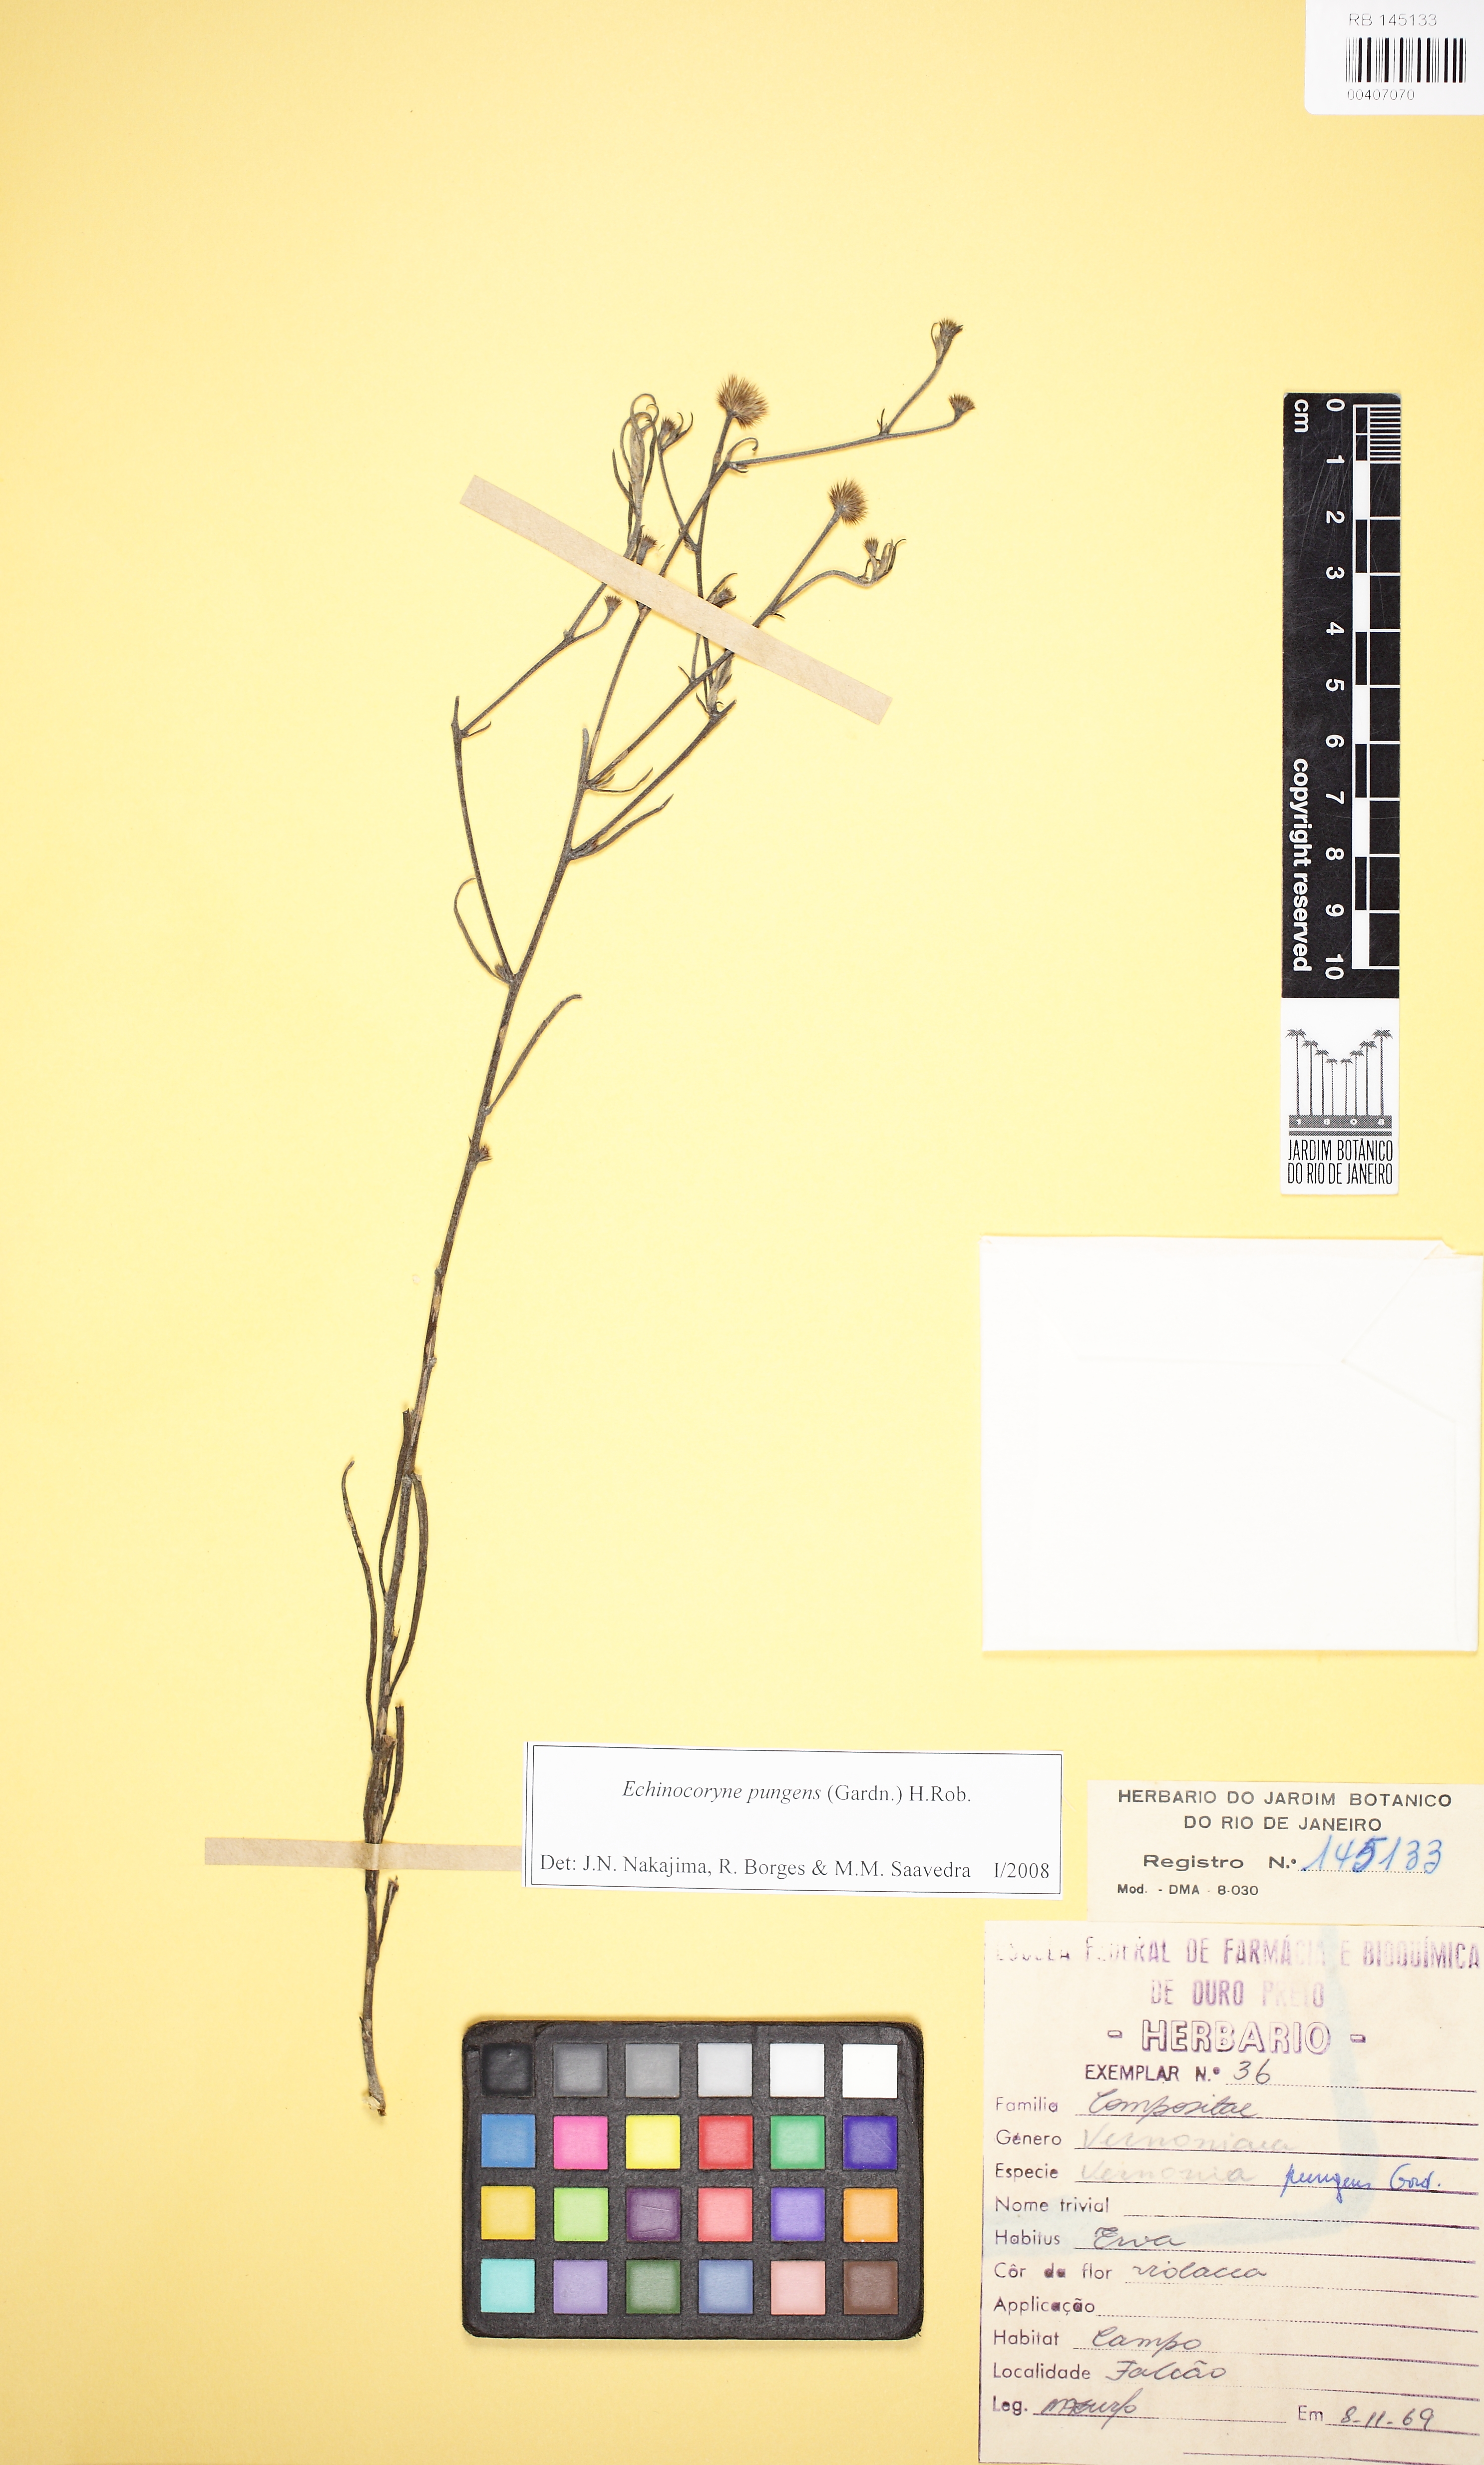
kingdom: Plantae
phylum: Tracheophyta
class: Magnoliopsida
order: Asterales
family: Asteraceae
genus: Echinocoryne
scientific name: Echinocoryne pungens
